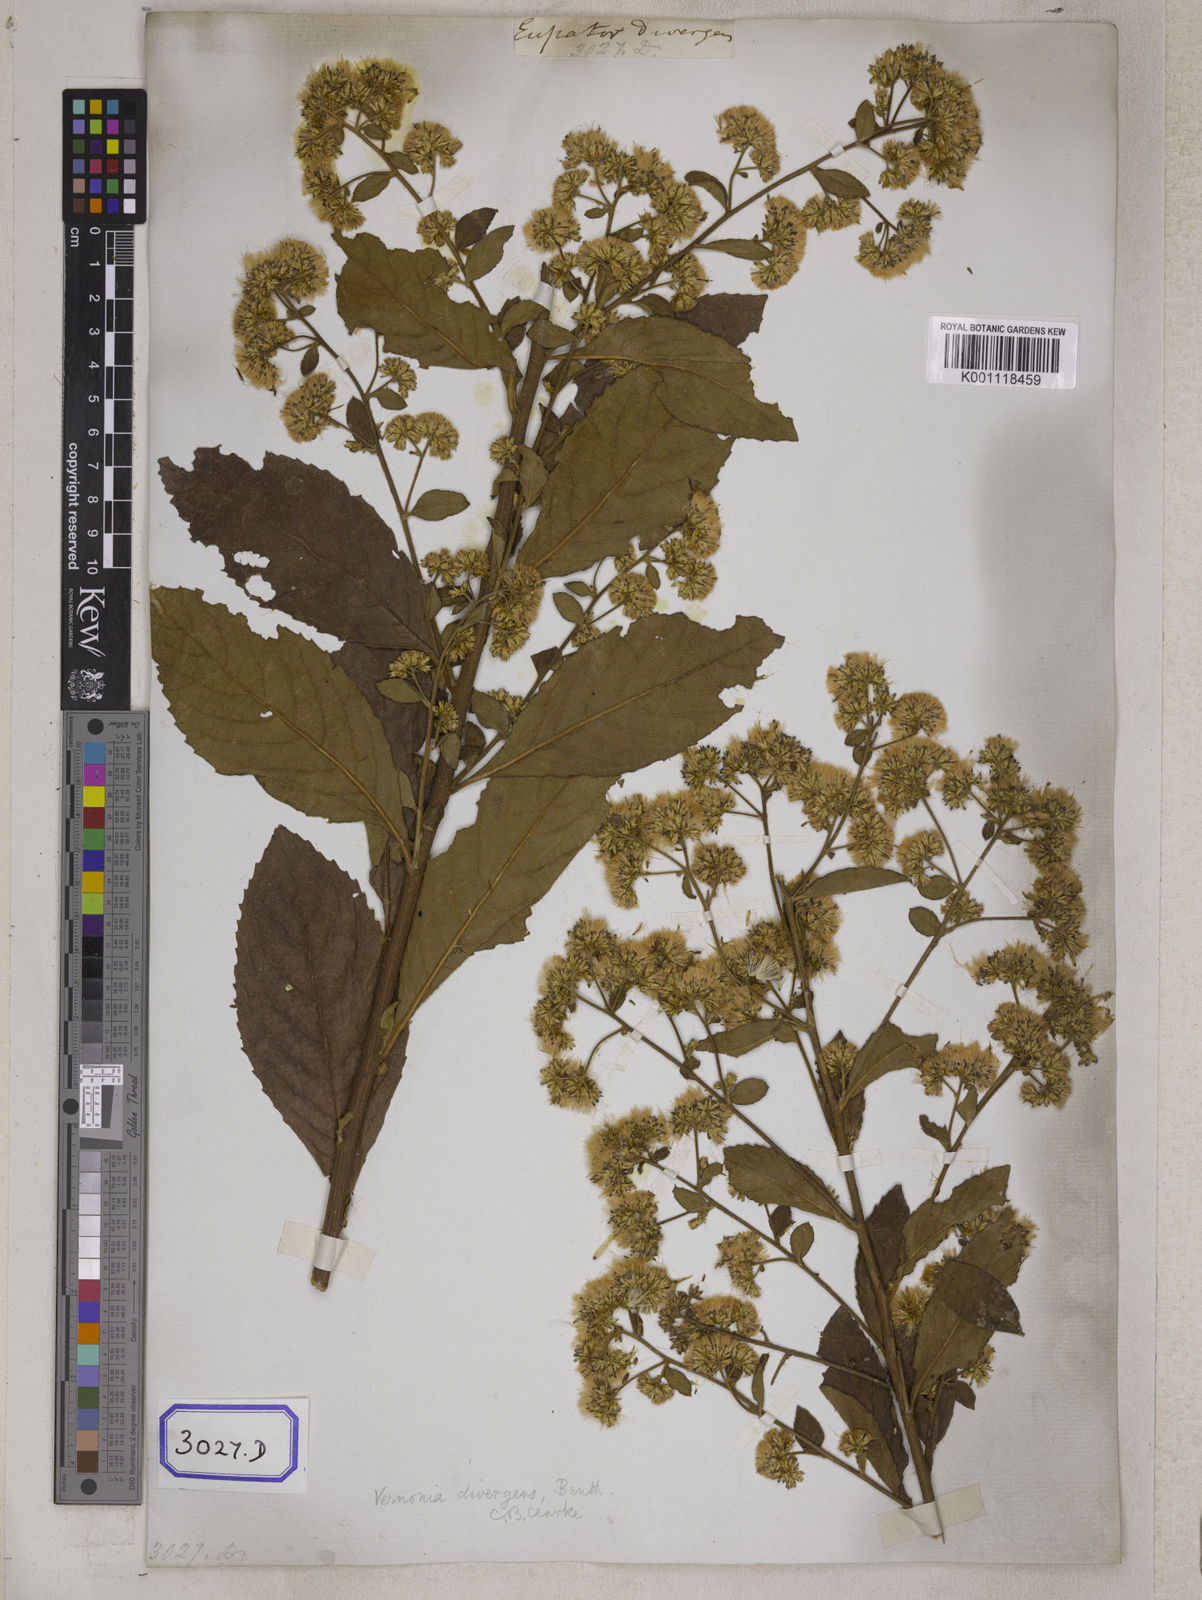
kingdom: Plantae
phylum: Tracheophyta
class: Magnoliopsida
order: Asterales
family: Asteraceae
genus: Acilepis
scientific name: Acilepis divergens
